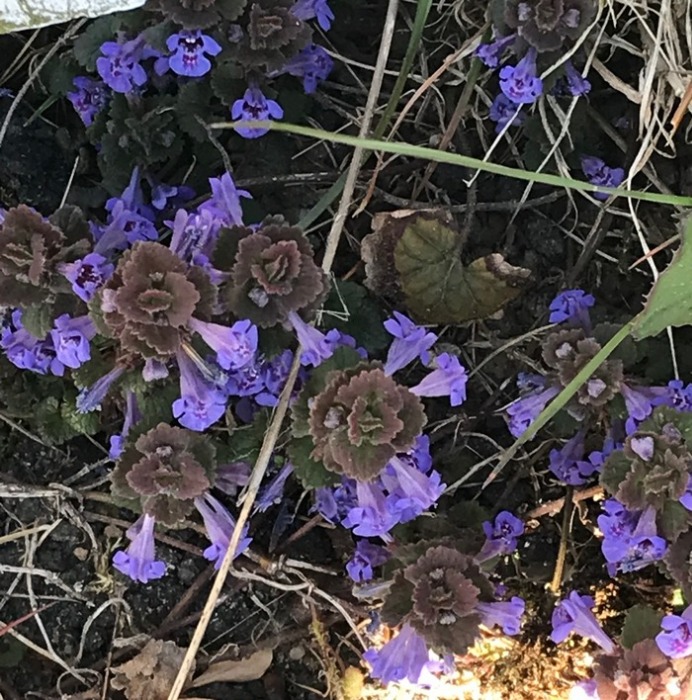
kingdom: Plantae
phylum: Tracheophyta
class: Magnoliopsida
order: Lamiales
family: Lamiaceae
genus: Glechoma
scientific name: Glechoma hederacea
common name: Korsknap
